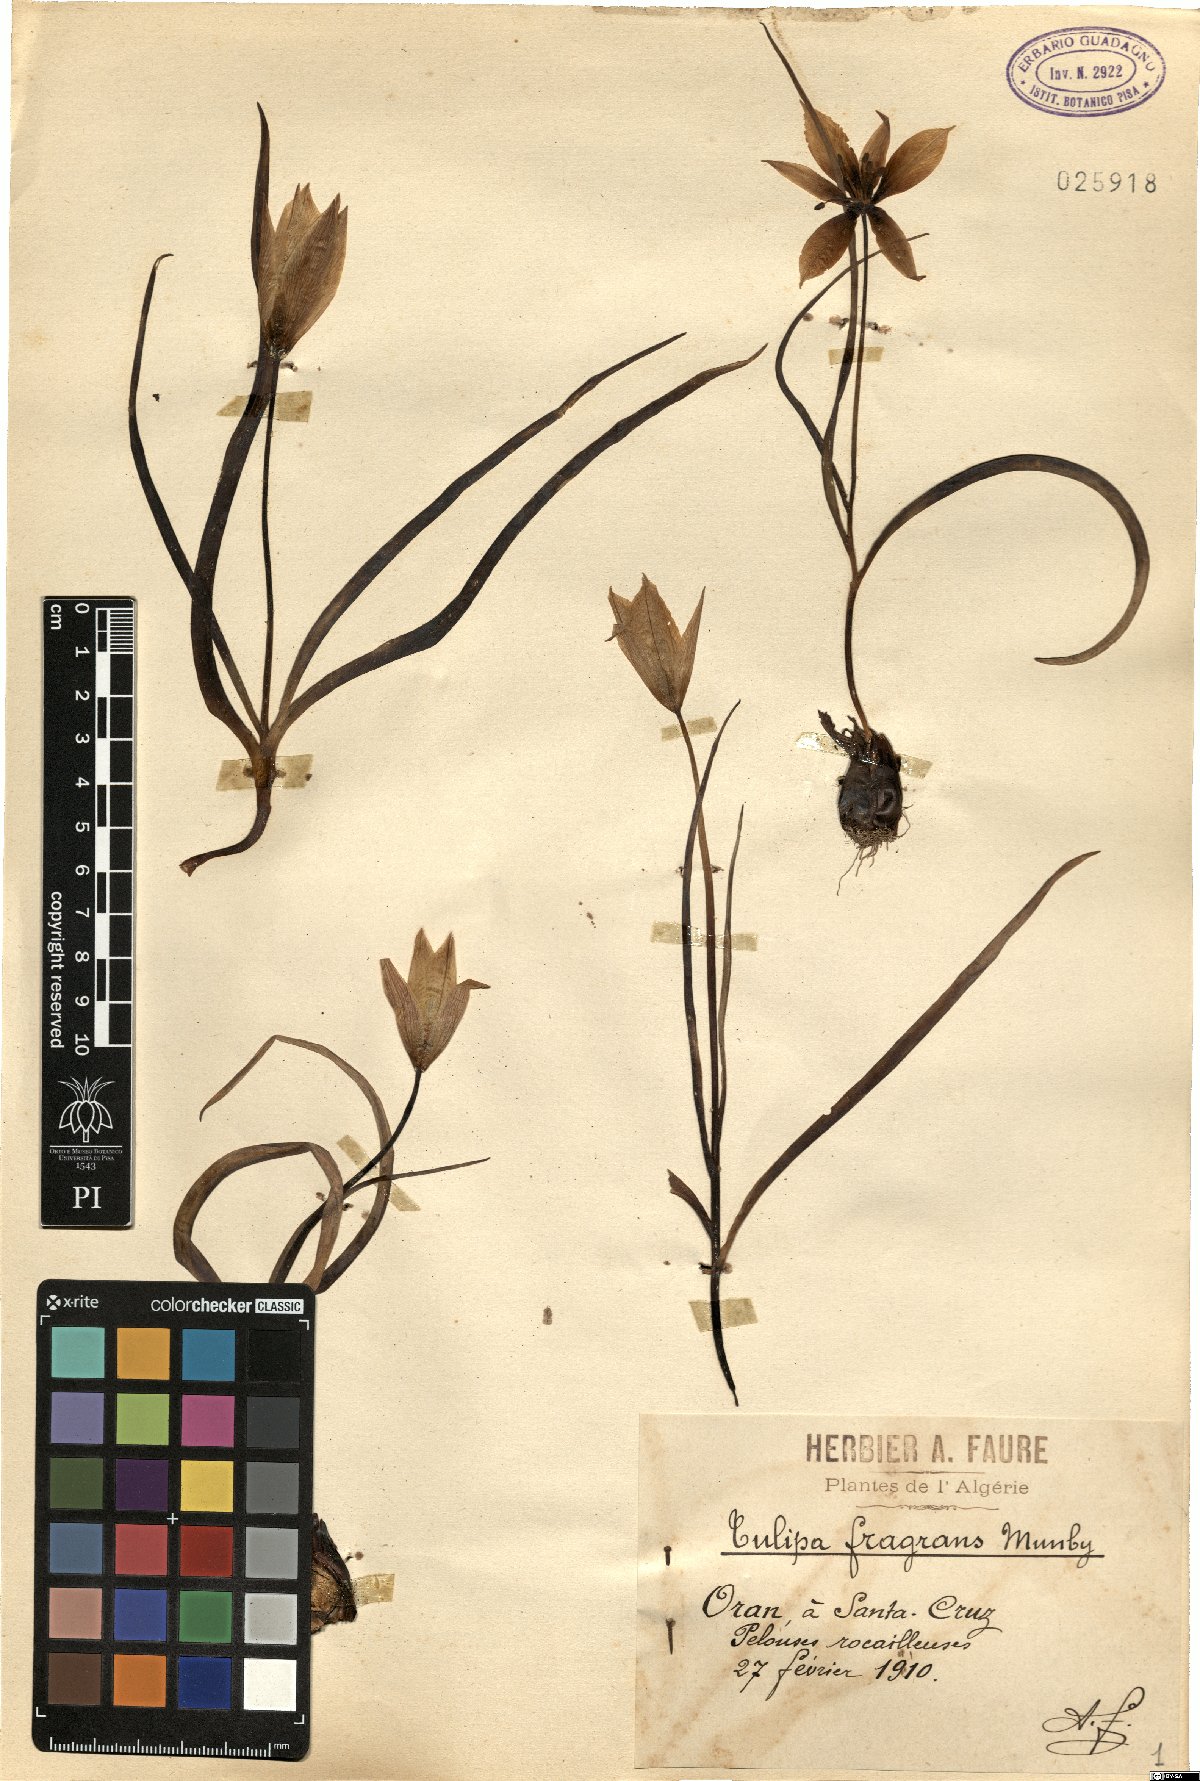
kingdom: Plantae
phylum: Tracheophyta
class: Liliopsida
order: Liliales
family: Liliaceae
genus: Tulipa
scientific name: Tulipa sylvestris
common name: Wild tulip
